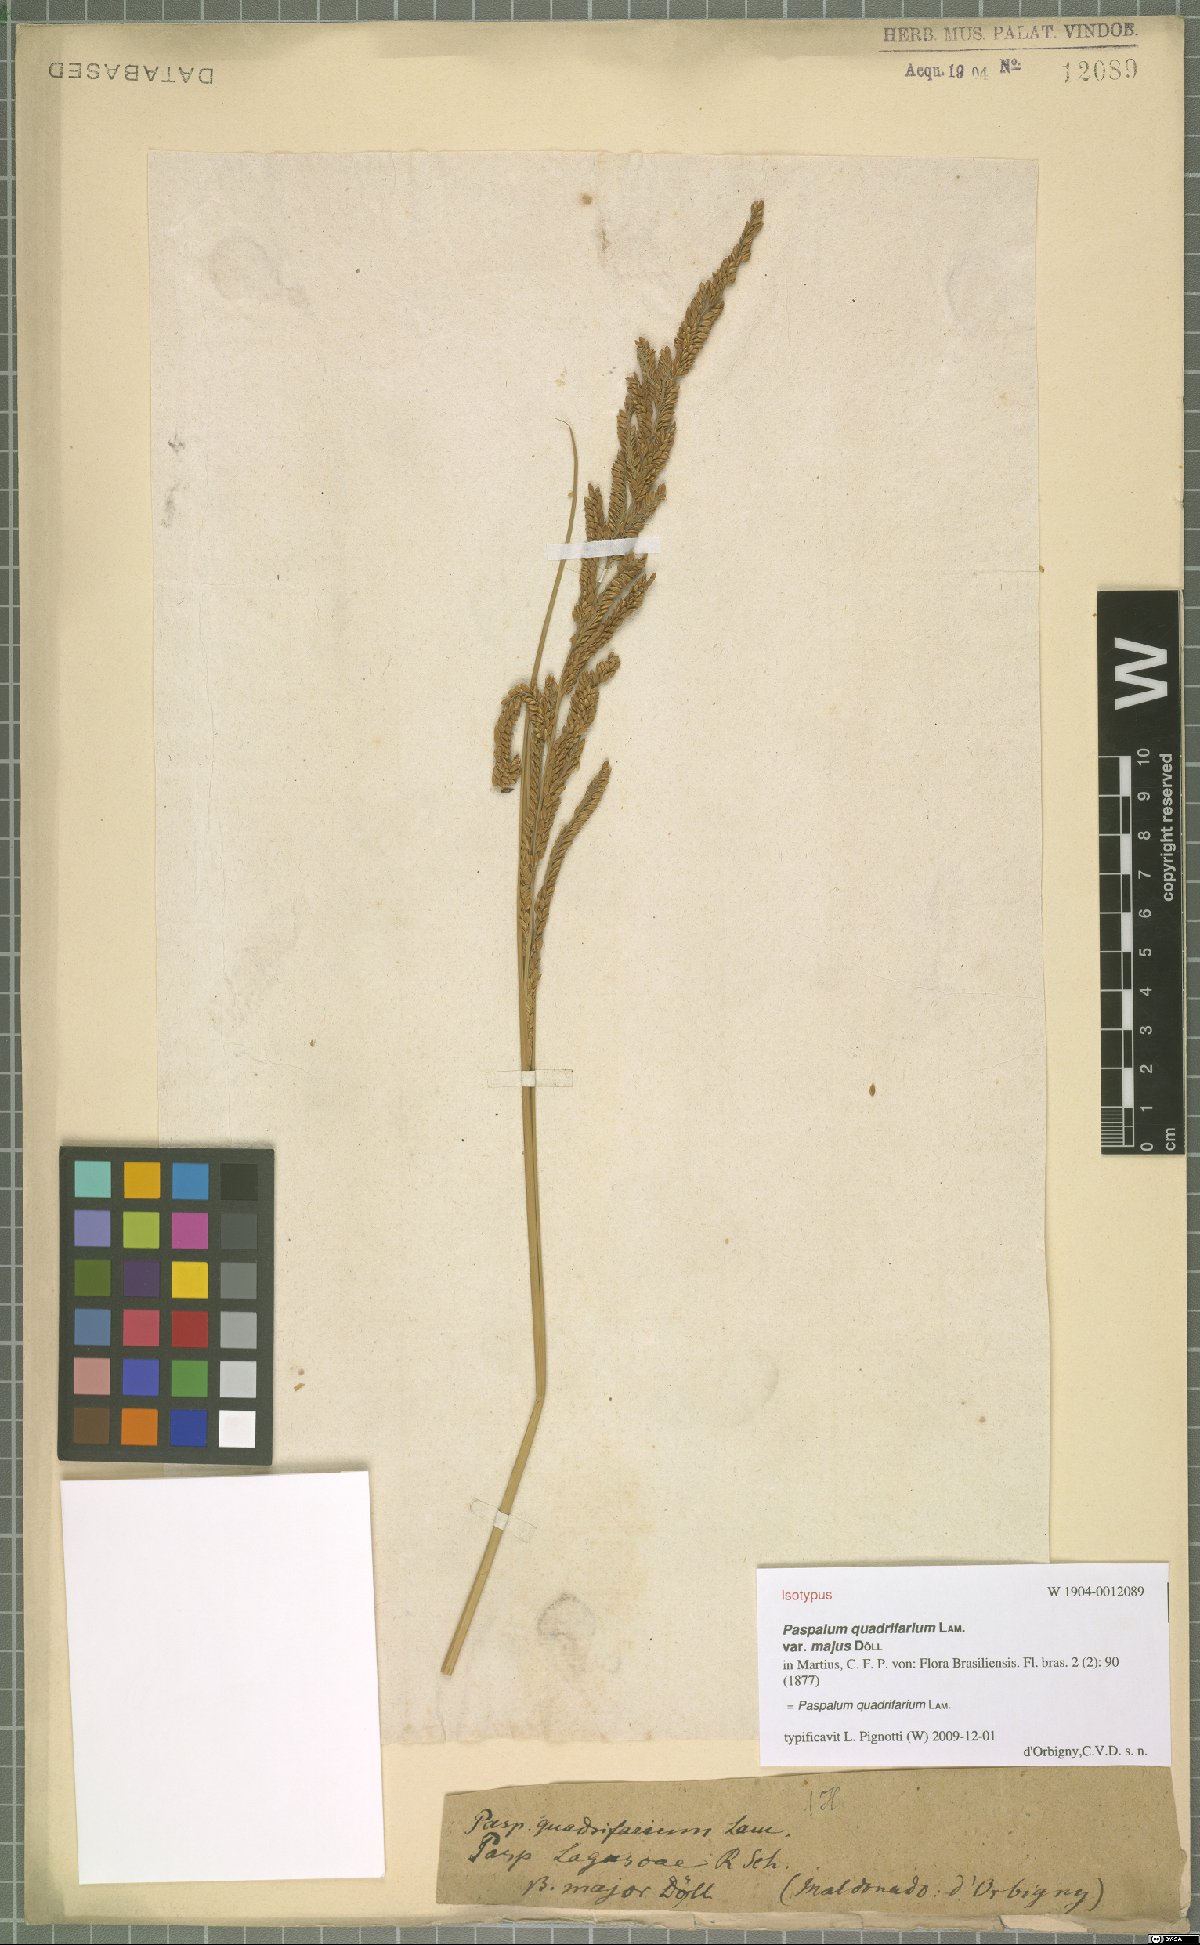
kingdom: Plantae
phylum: Tracheophyta
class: Liliopsida
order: Poales
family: Poaceae
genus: Paspalum
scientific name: Paspalum quadrifarium
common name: Tussock paspalum
